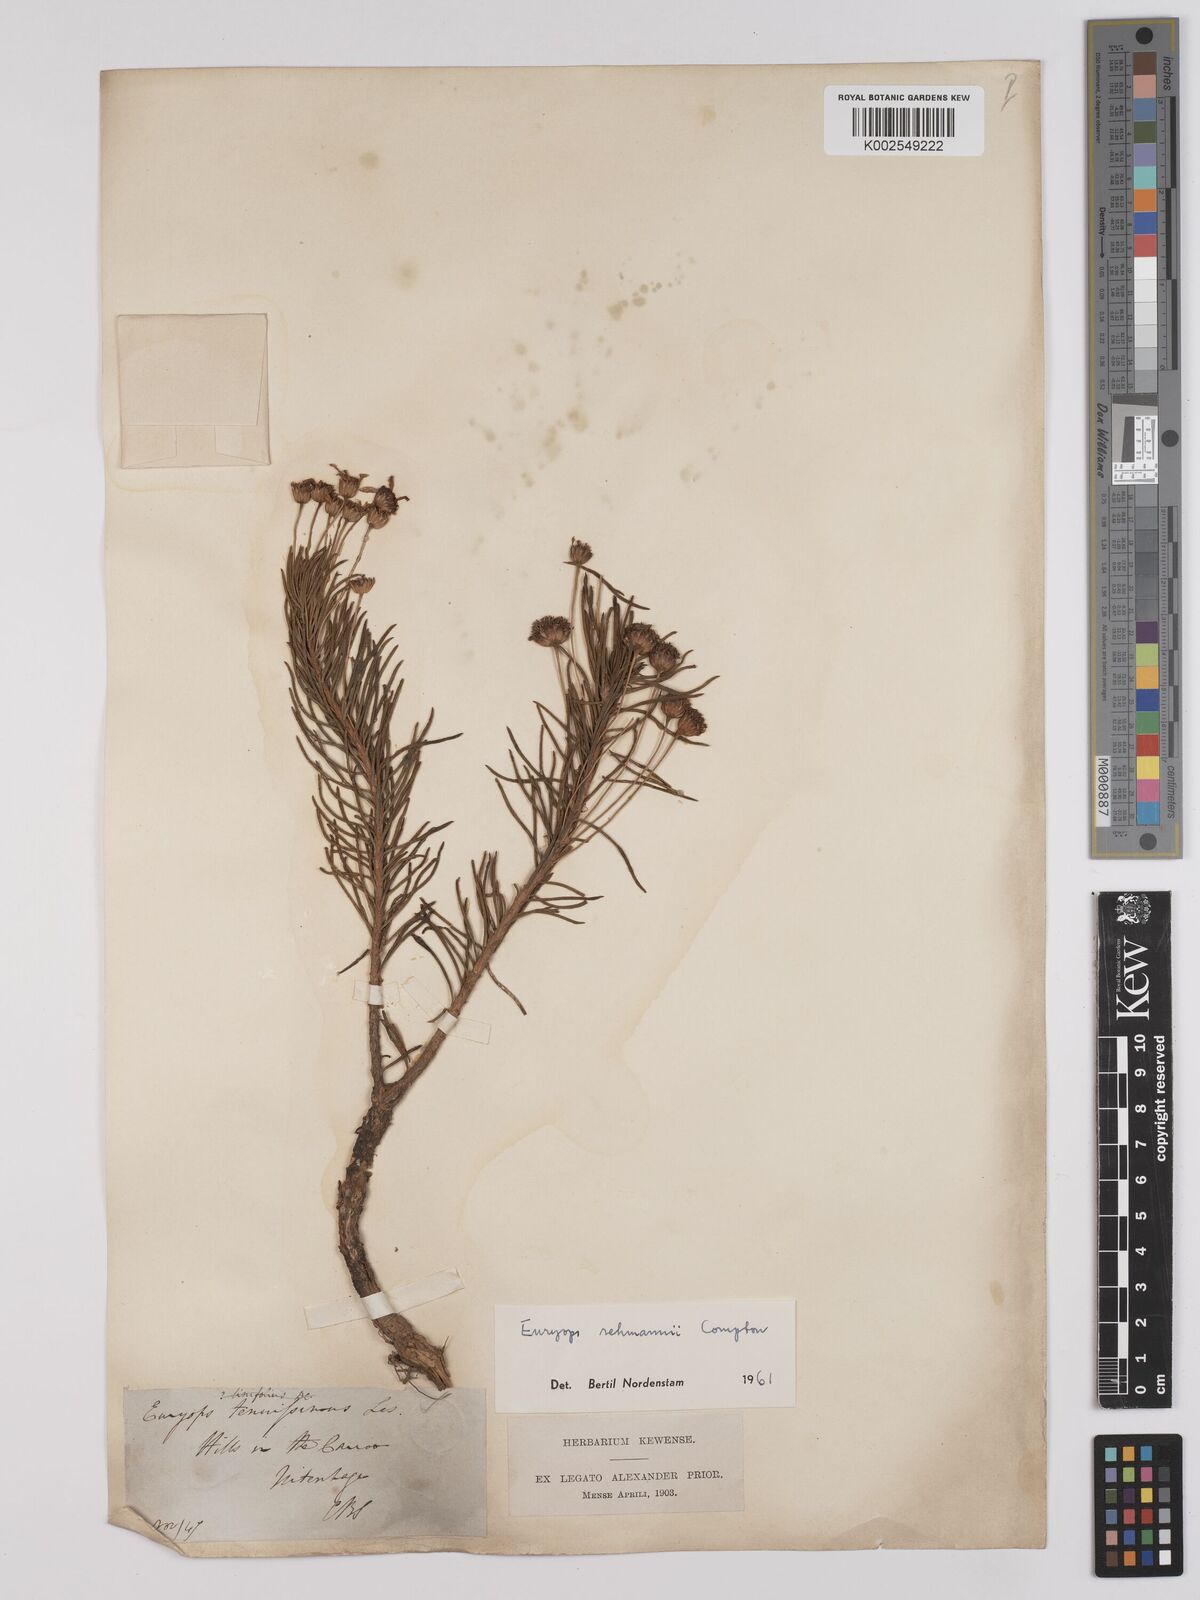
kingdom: Plantae
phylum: Tracheophyta
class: Magnoliopsida
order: Asterales
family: Asteraceae
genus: Euryops
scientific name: Euryops rehmannii
